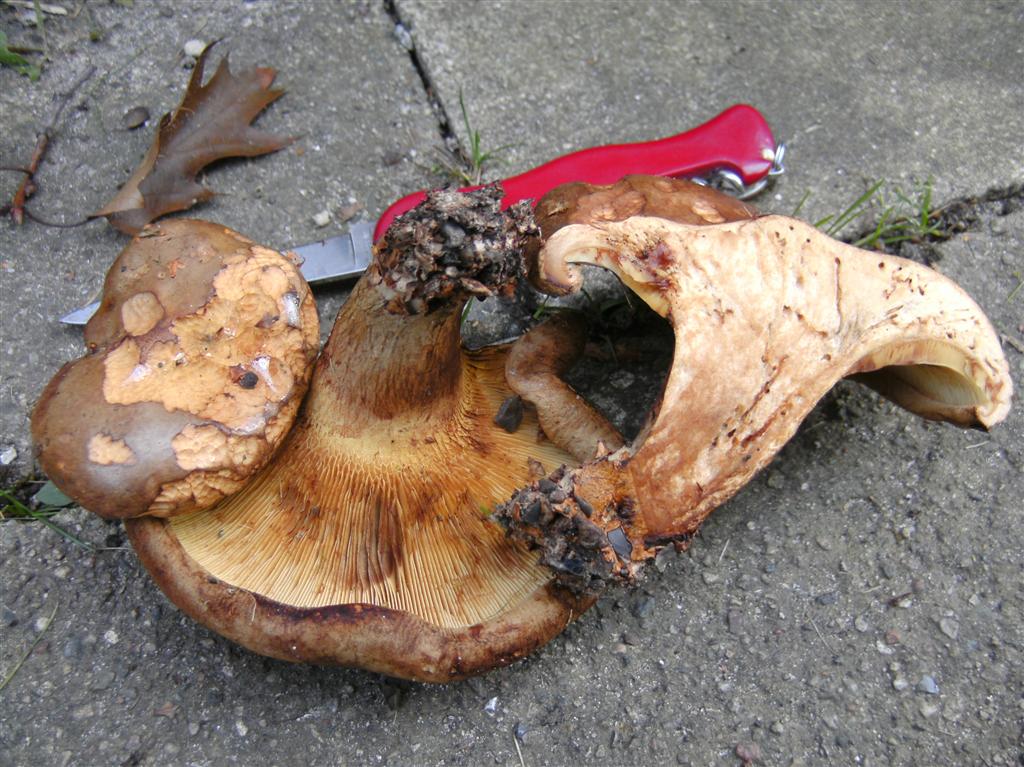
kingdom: Fungi
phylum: Basidiomycota
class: Agaricomycetes
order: Boletales
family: Paxillaceae
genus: Paxillus
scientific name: Paxillus ammoniavirescens
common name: olivensporet netbladhat
